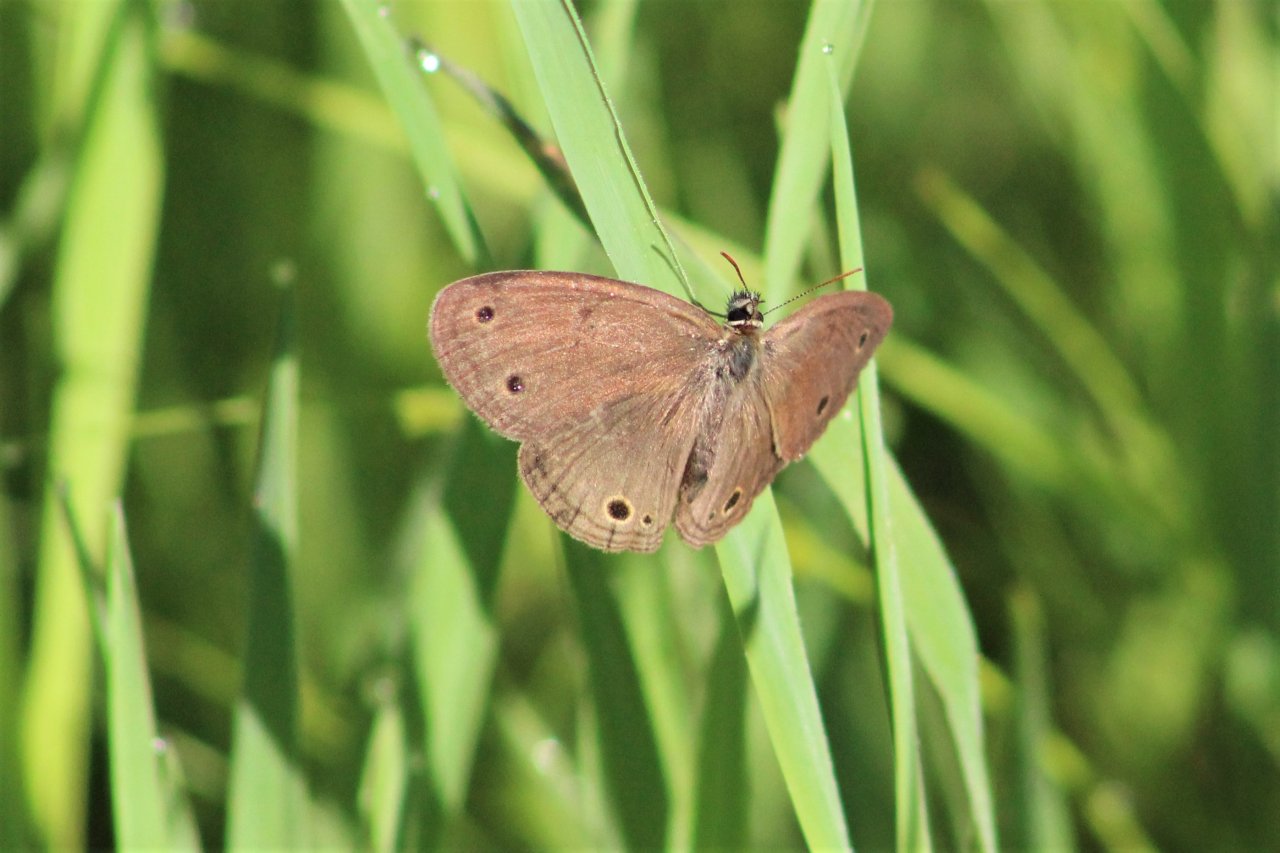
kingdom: Animalia
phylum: Arthropoda
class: Insecta
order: Lepidoptera
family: Nymphalidae
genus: Euptychia
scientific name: Euptychia cymela
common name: Little Wood Satyr
